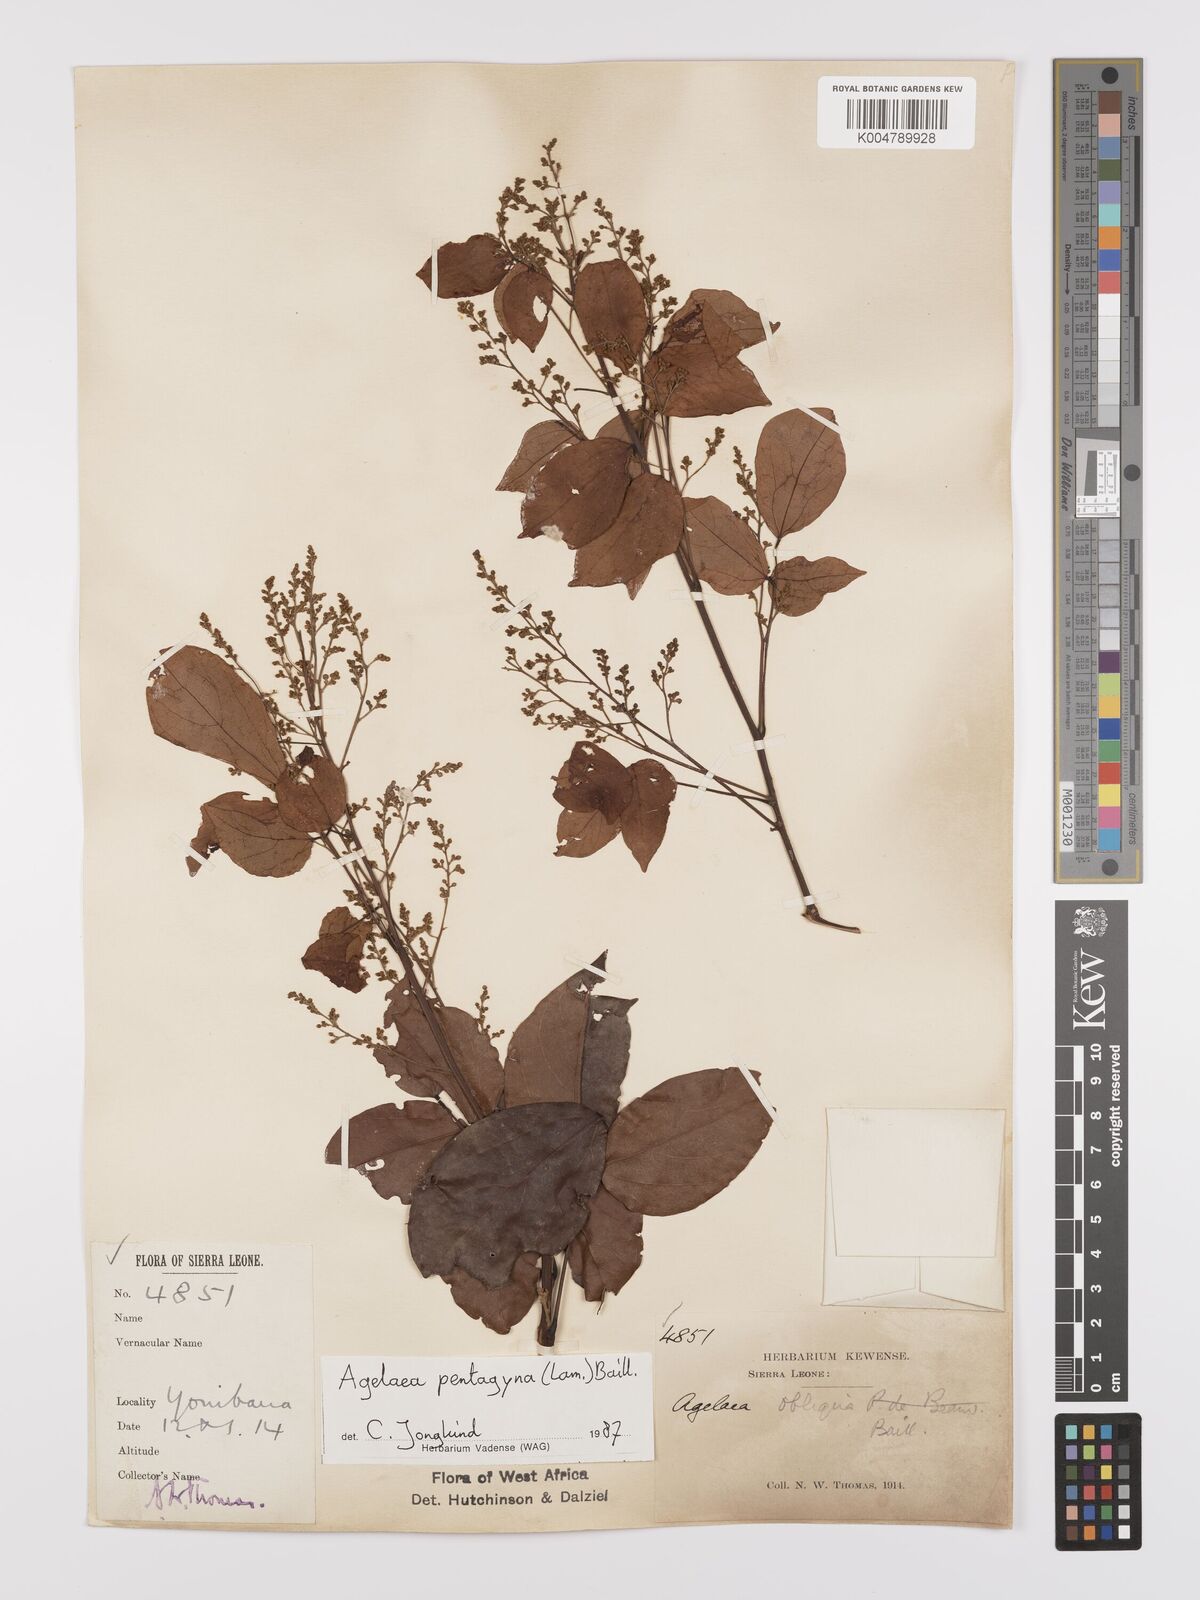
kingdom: Plantae
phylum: Tracheophyta
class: Magnoliopsida
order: Oxalidales
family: Connaraceae
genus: Agelaea
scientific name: Agelaea pentagyna
